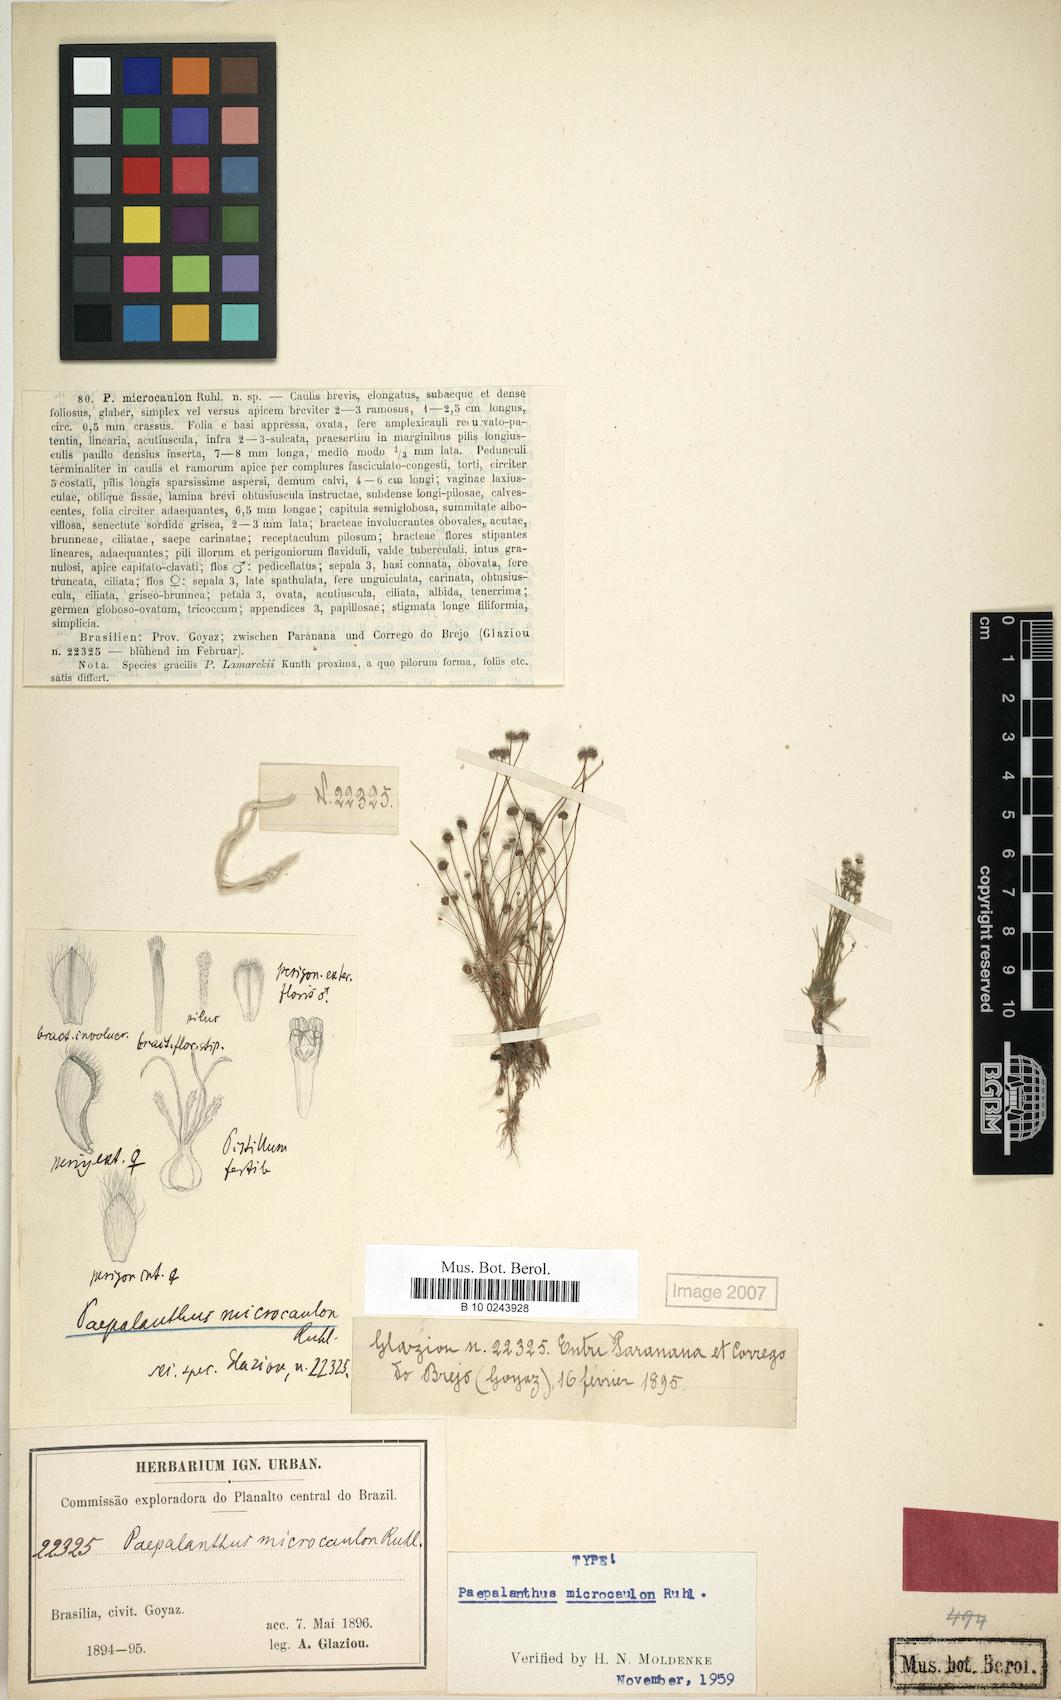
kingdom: Plantae
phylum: Tracheophyta
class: Liliopsida
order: Poales
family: Eriocaulaceae
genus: Paepalanthus
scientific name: Paepalanthus microcaulon
